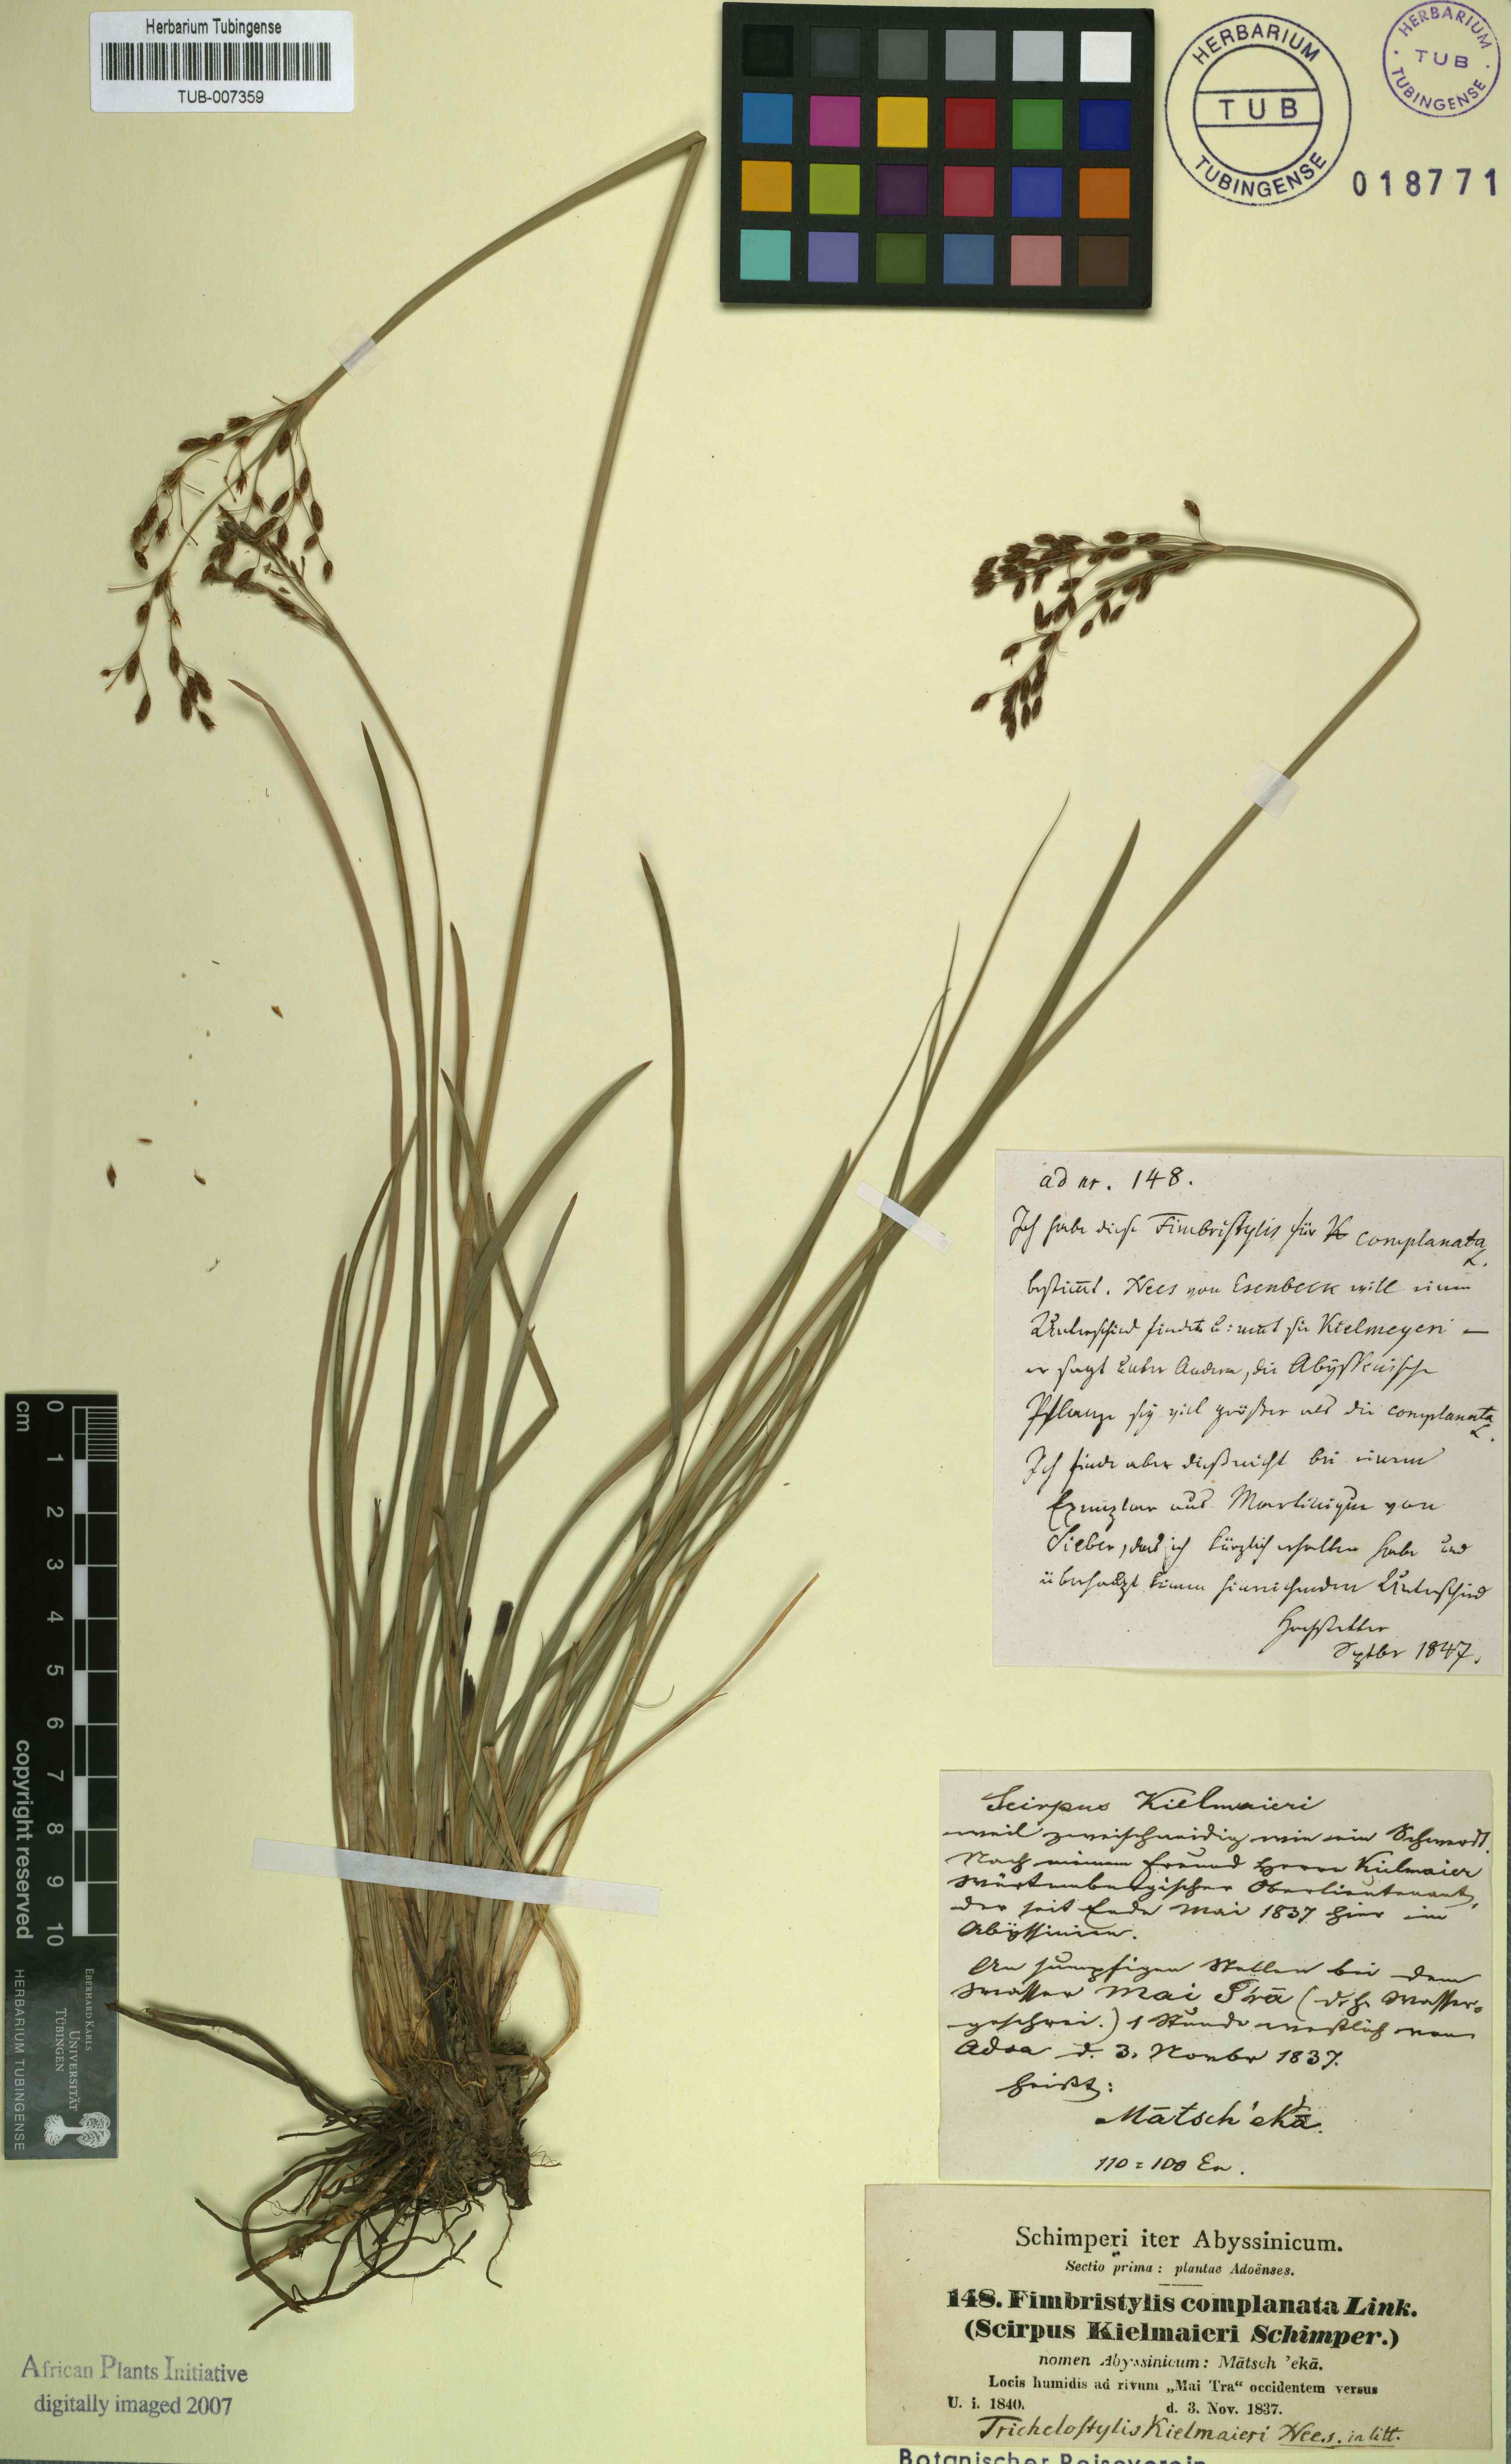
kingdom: Plantae
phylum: Tracheophyta
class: Liliopsida
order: Poales
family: Cyperaceae
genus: Fimbristylis
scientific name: Fimbristylis complanata
